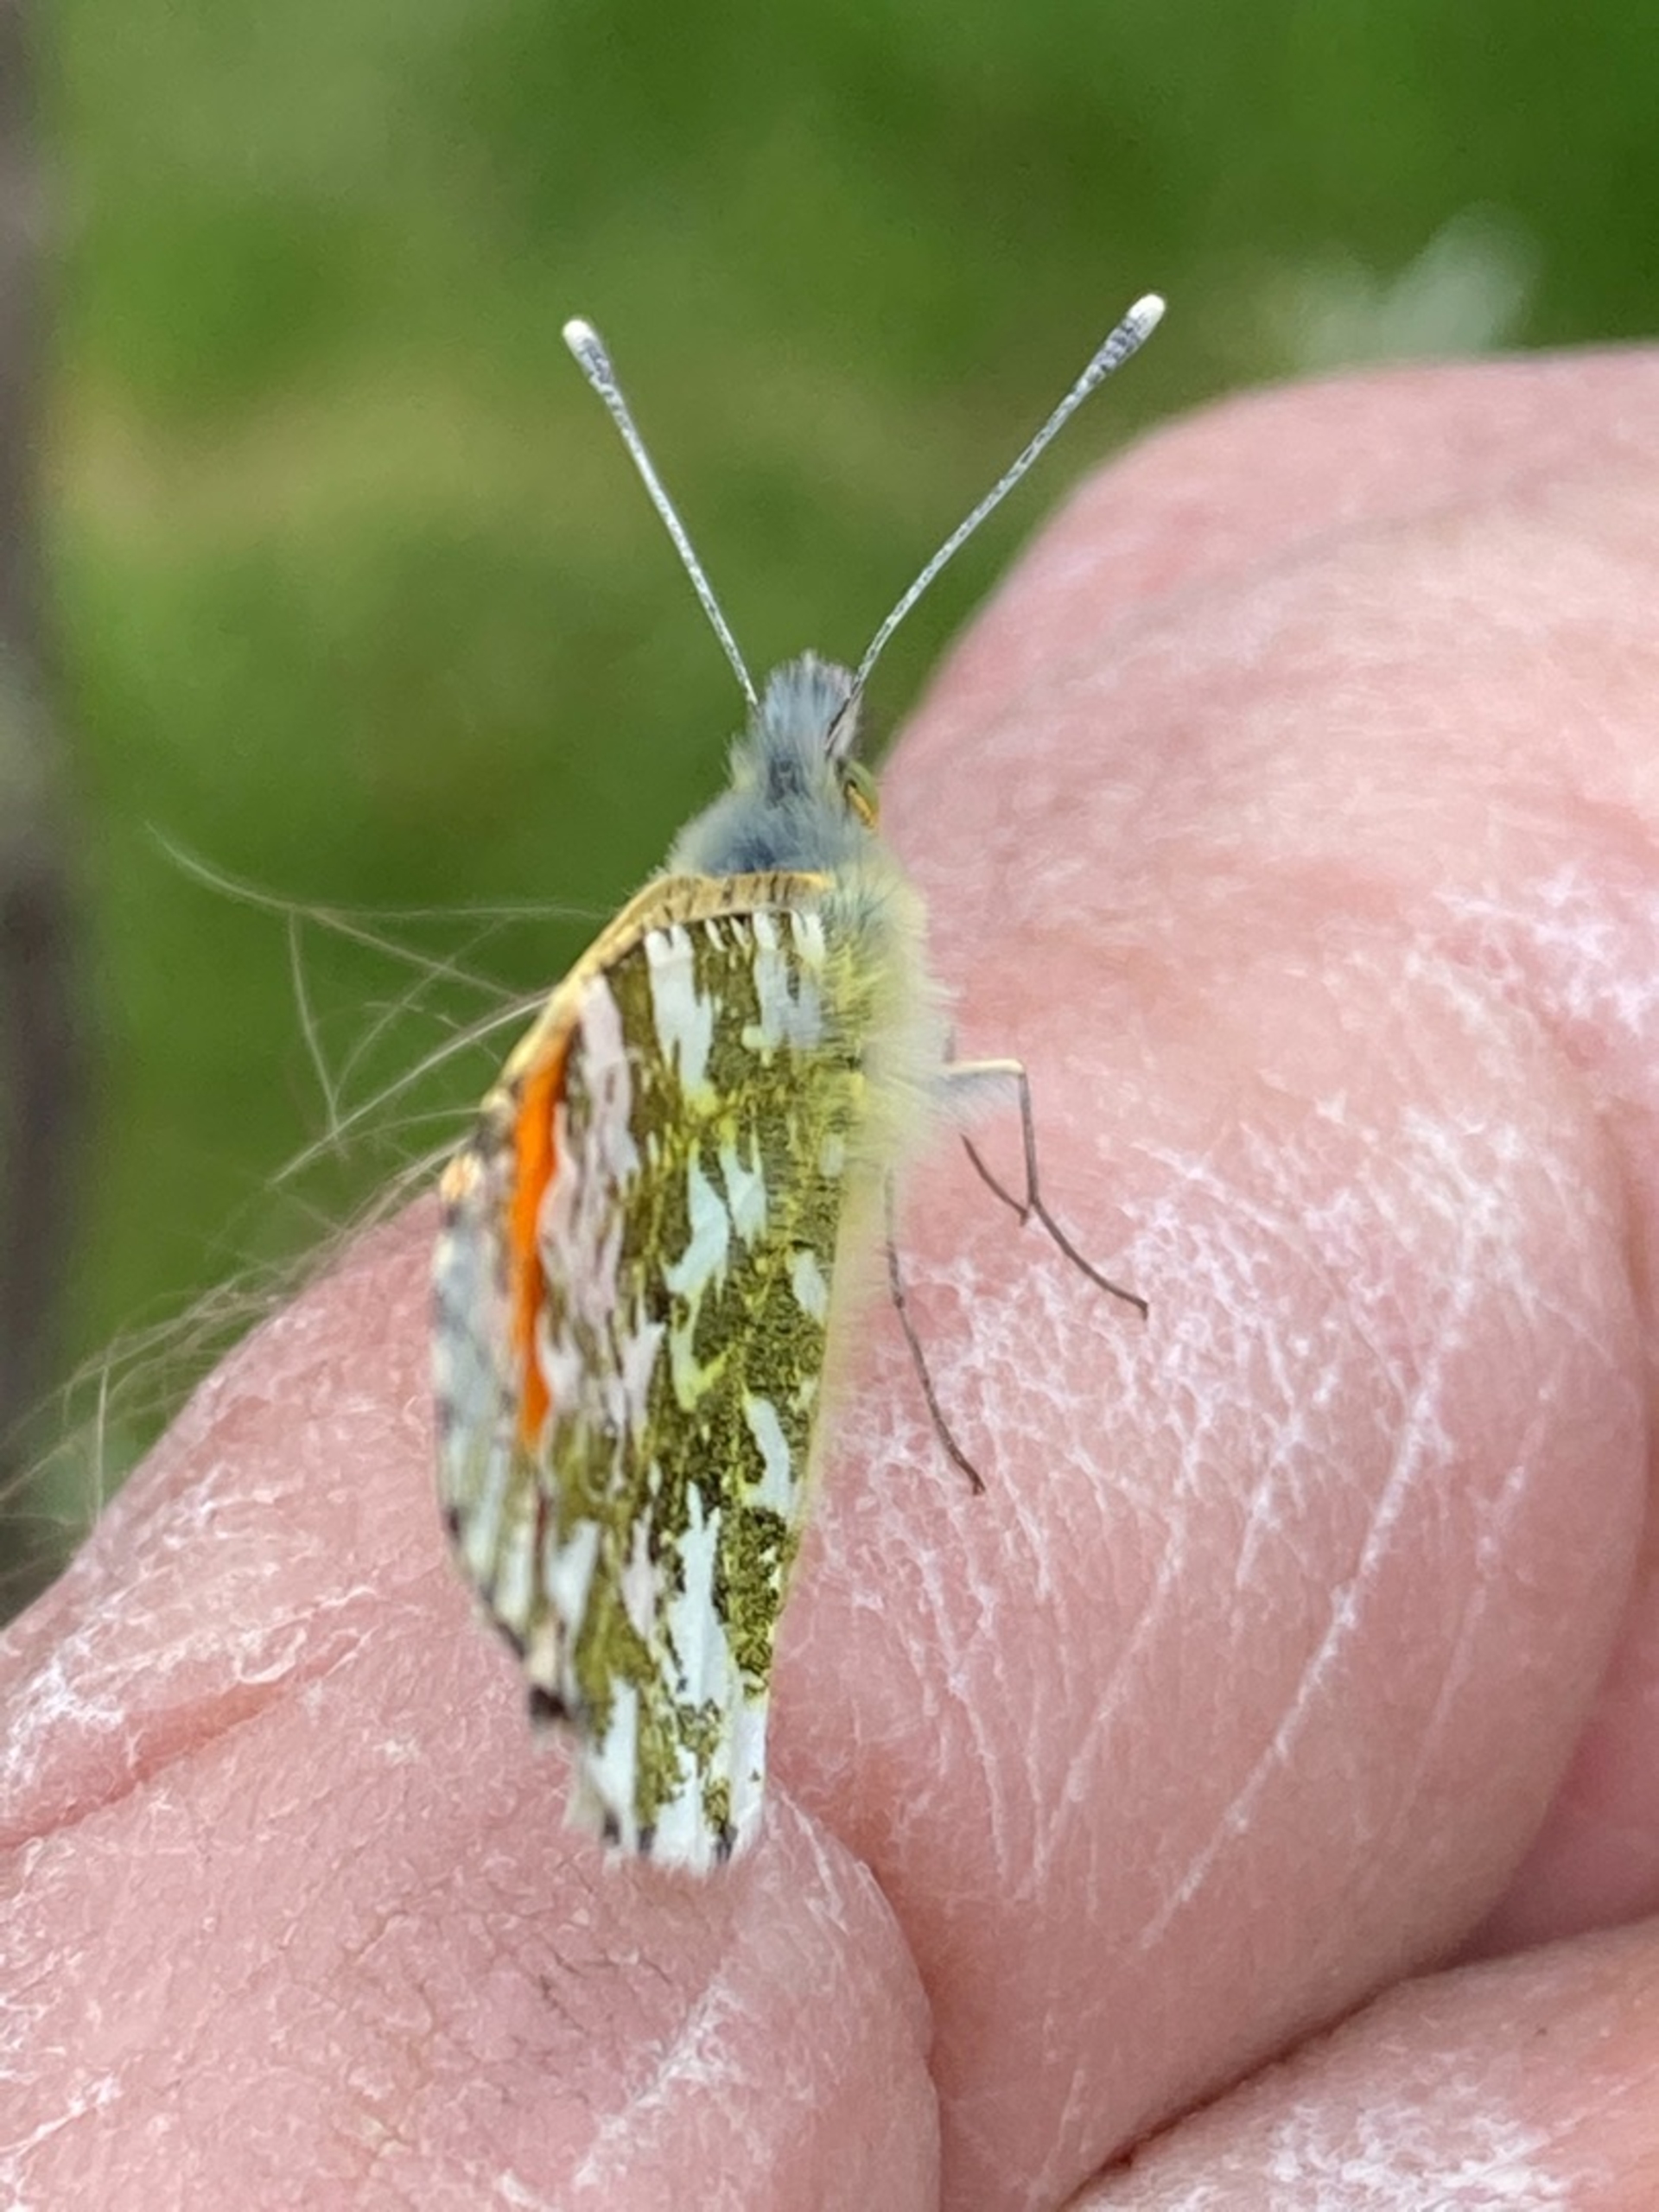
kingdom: Animalia
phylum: Arthropoda
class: Insecta
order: Lepidoptera
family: Pieridae
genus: Anthocharis
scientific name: Anthocharis cardamines
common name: Aurora
